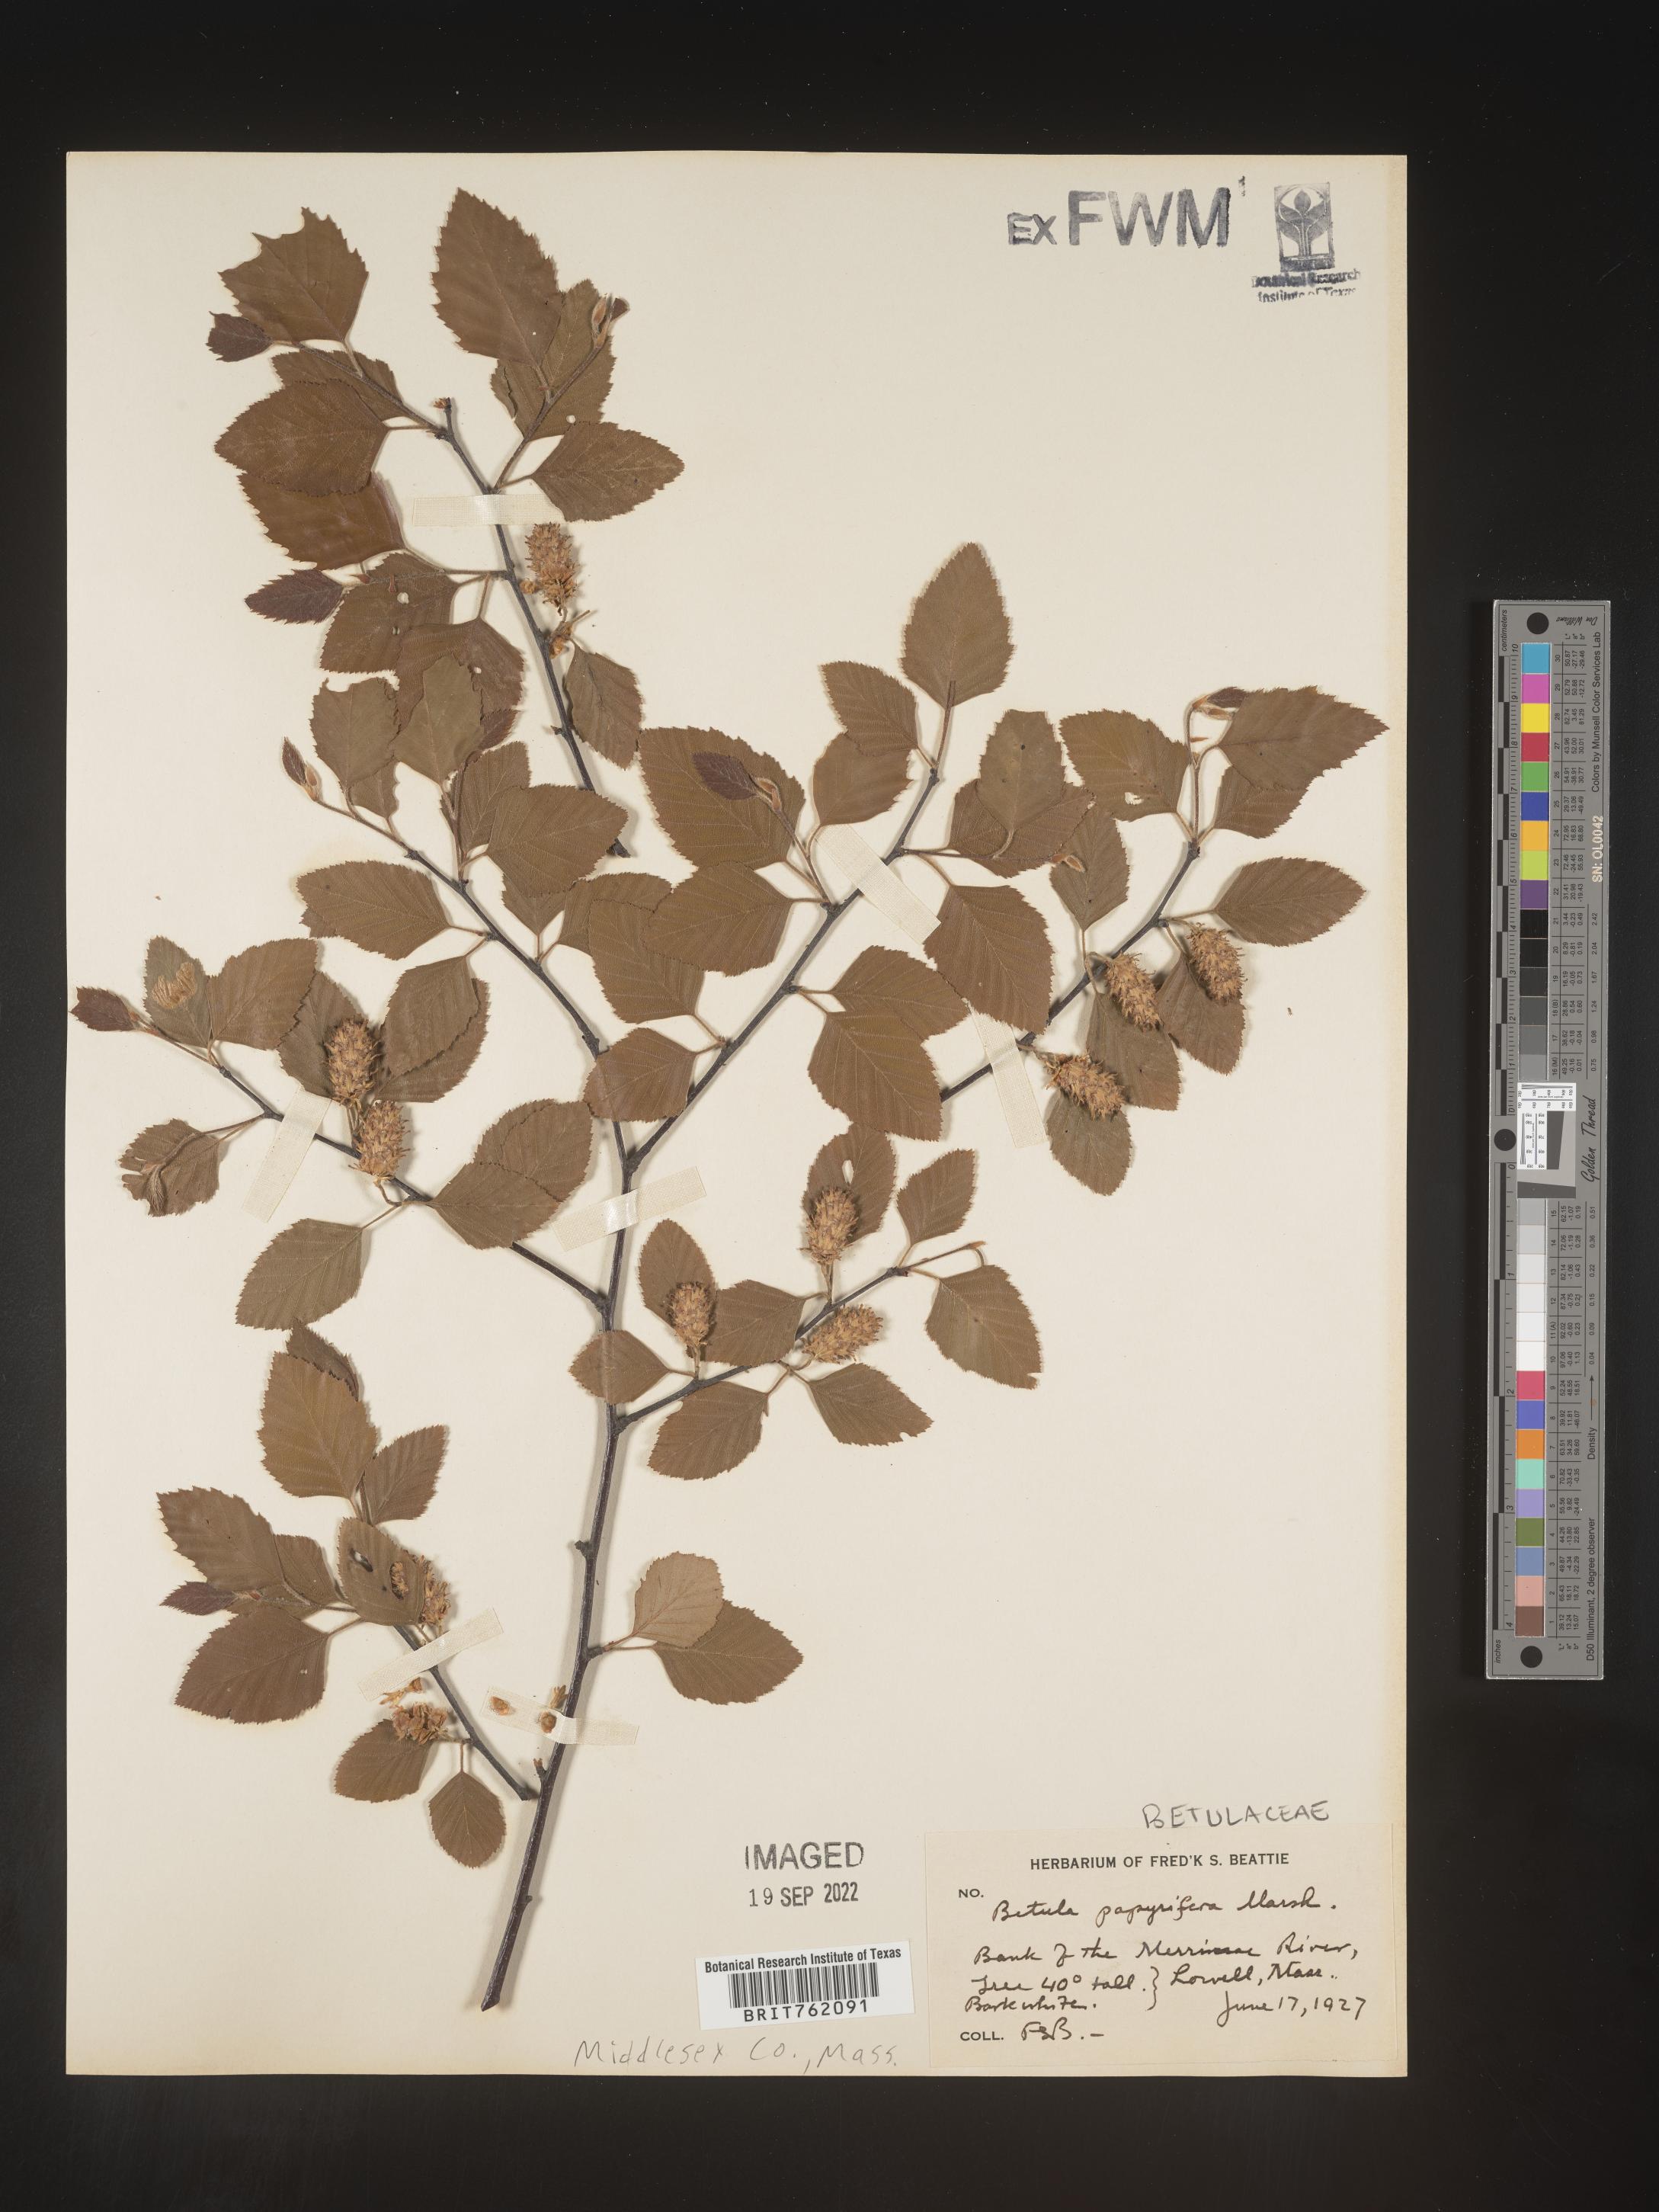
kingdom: Plantae
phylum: Tracheophyta
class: Magnoliopsida
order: Fagales
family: Betulaceae
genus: Betula
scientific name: Betula papyrifera
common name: Paper birch
